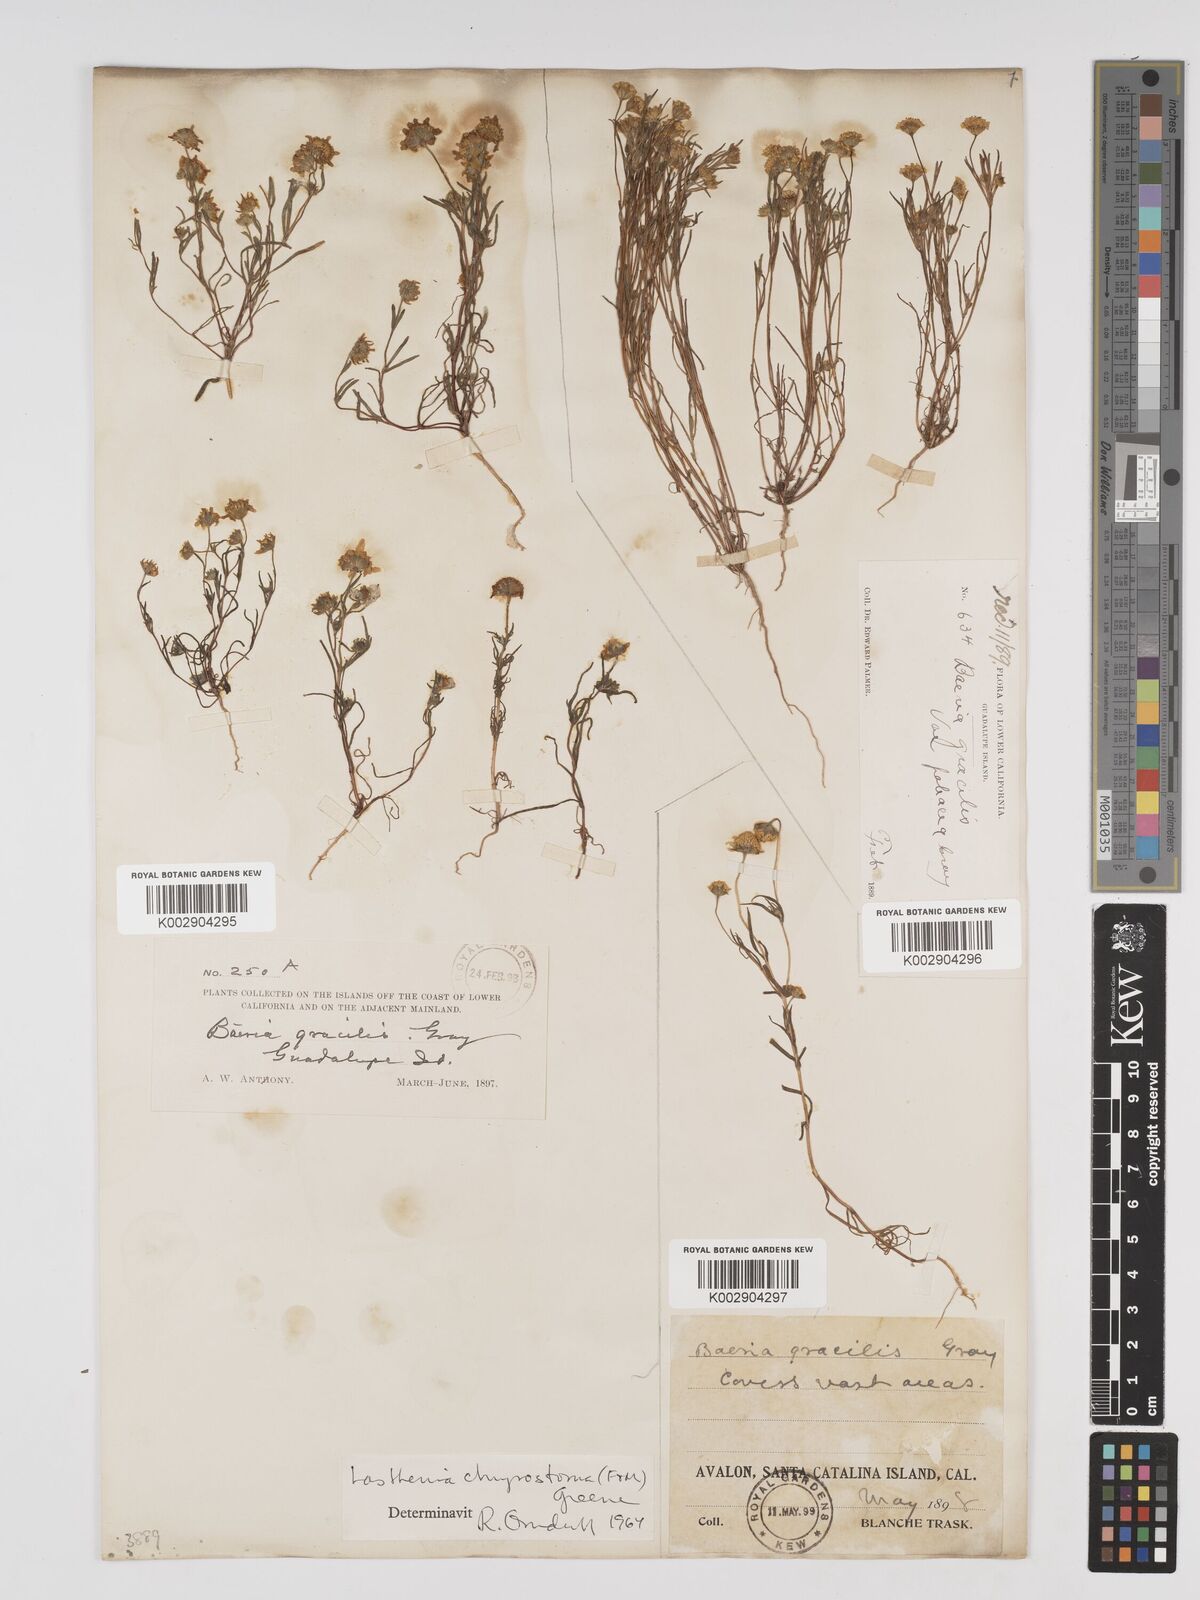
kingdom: Plantae
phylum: Tracheophyta
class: Magnoliopsida
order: Asterales
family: Asteraceae
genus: Lasthenia
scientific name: Lasthenia californica
